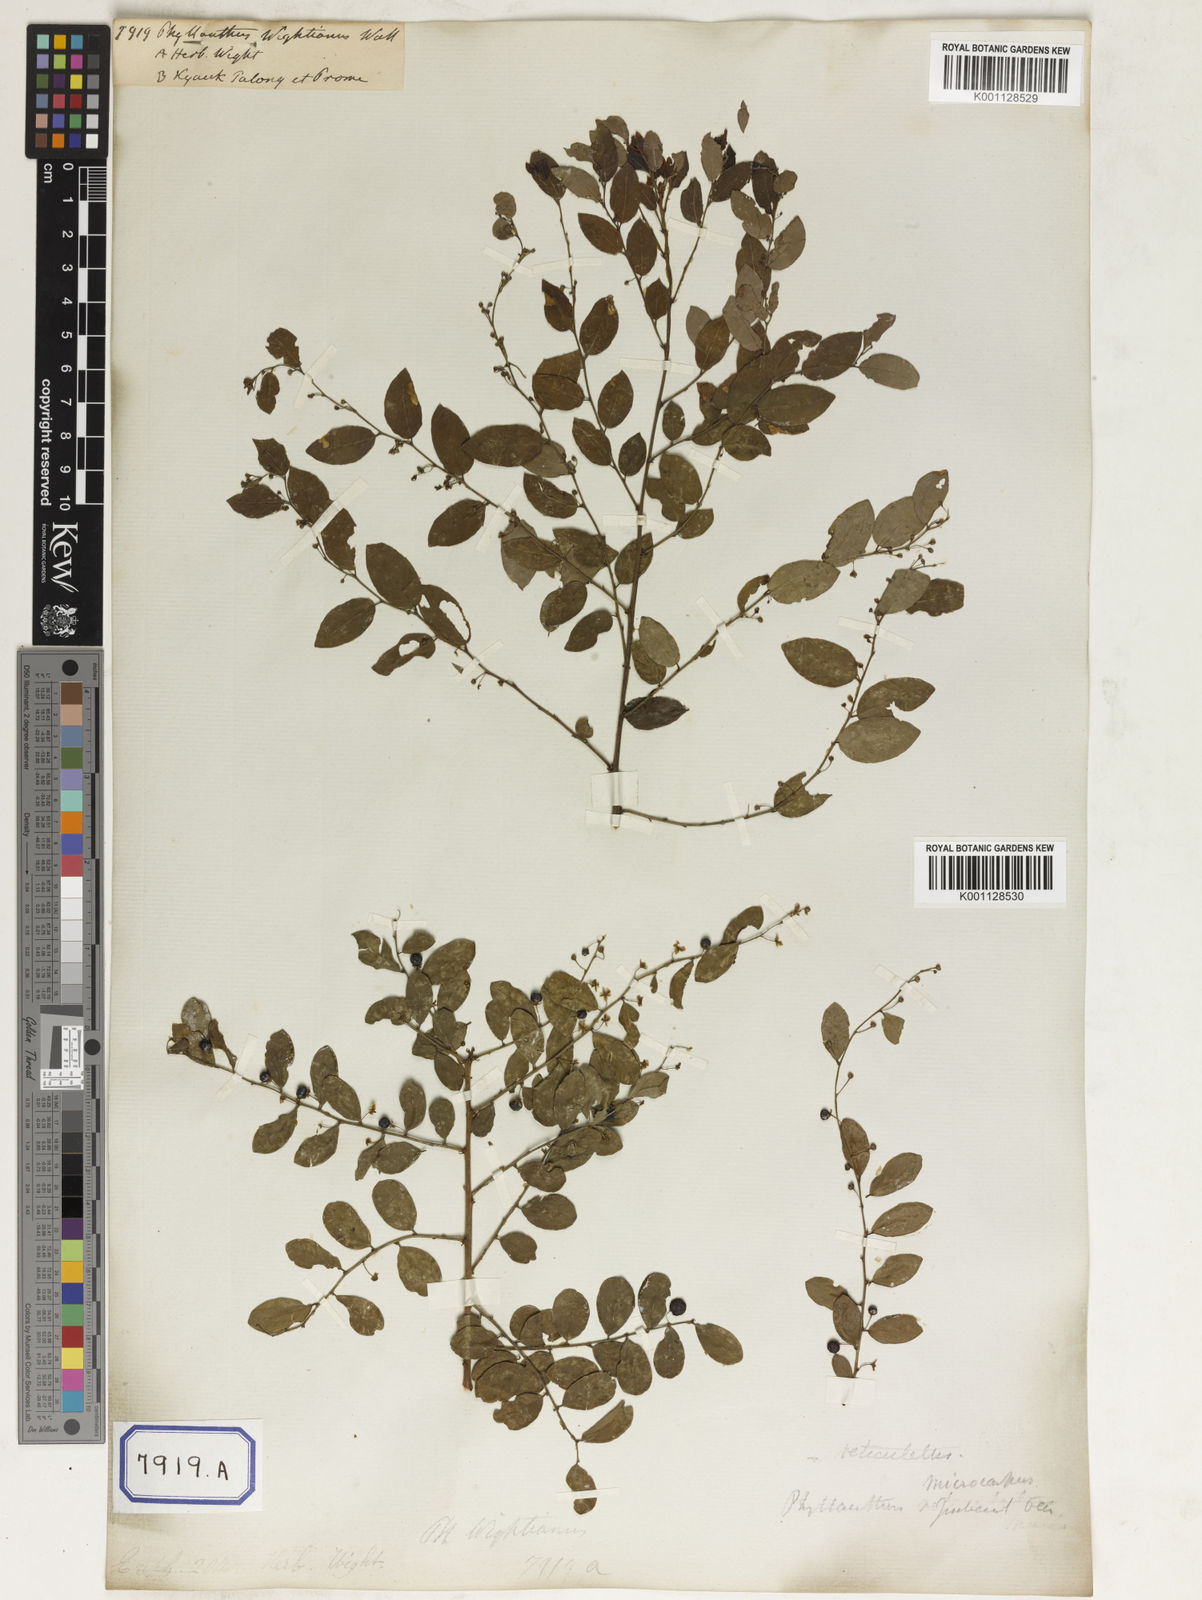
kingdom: Plantae
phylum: Tracheophyta
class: Magnoliopsida
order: Malpighiales
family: Phyllanthaceae
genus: Phyllanthus
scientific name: Phyllanthus
